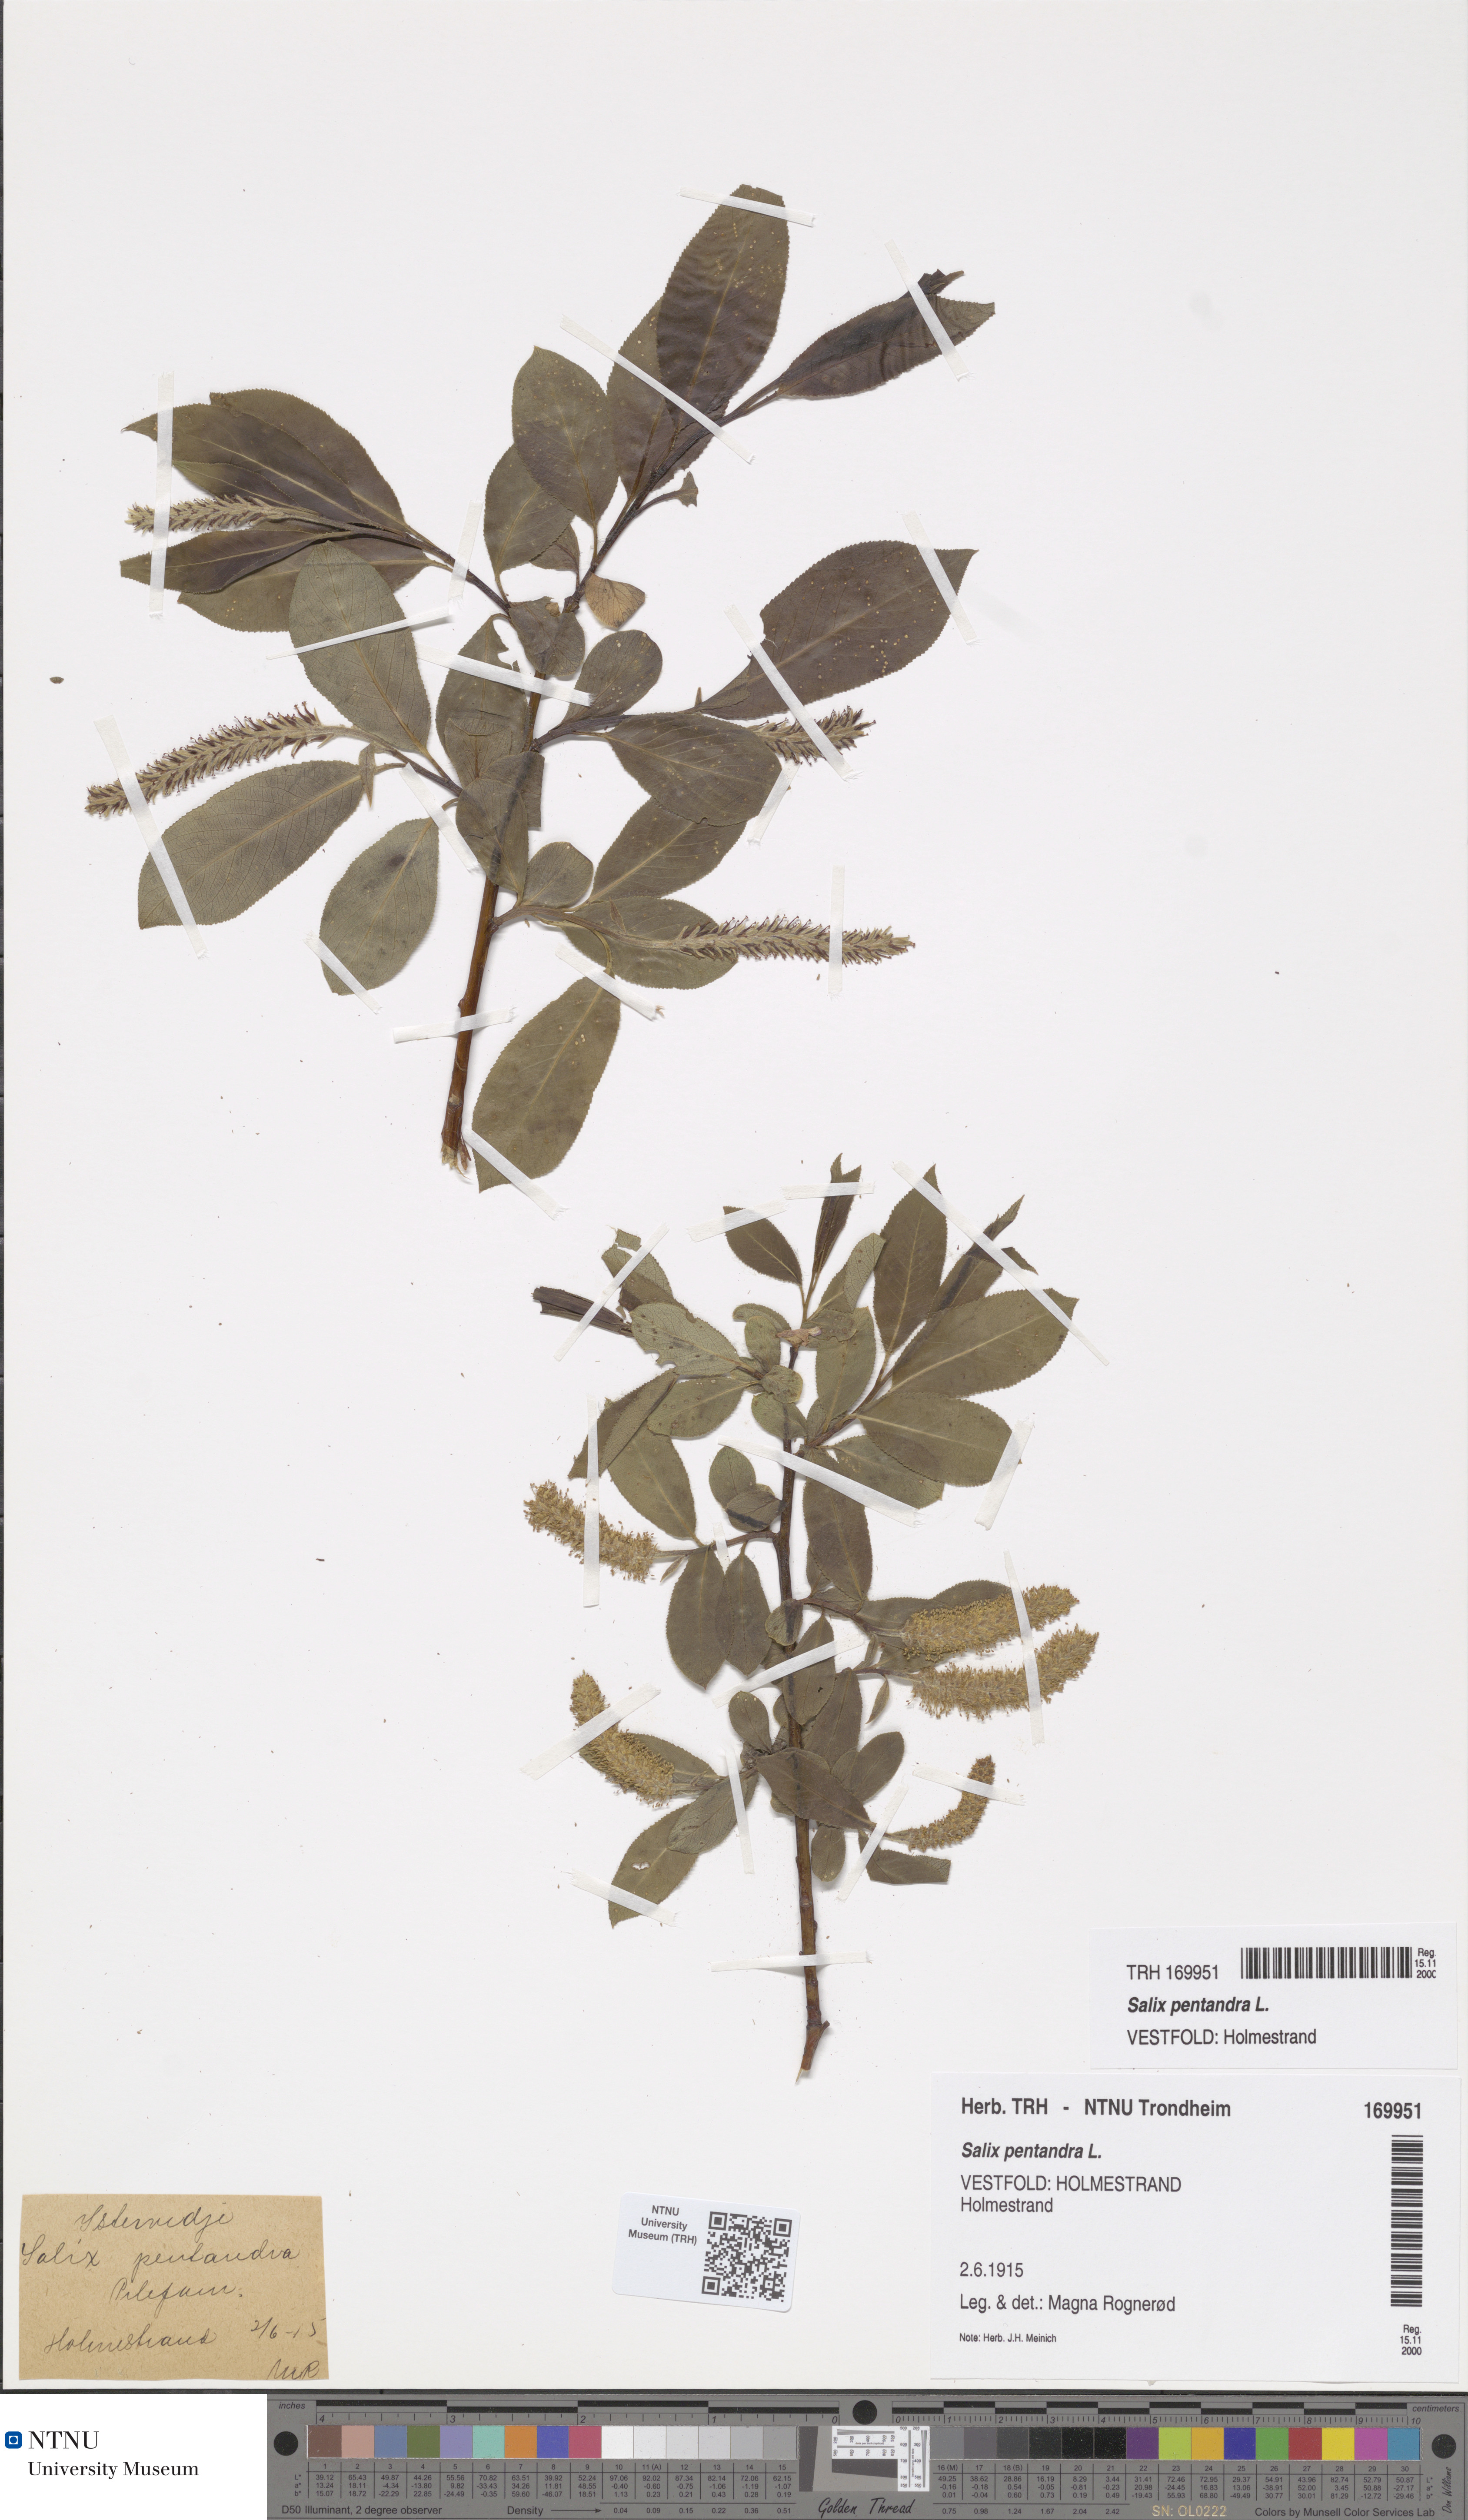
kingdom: Plantae
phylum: Tracheophyta
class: Magnoliopsida
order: Malpighiales
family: Salicaceae
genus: Salix
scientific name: Salix pentandra
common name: Bay willow
